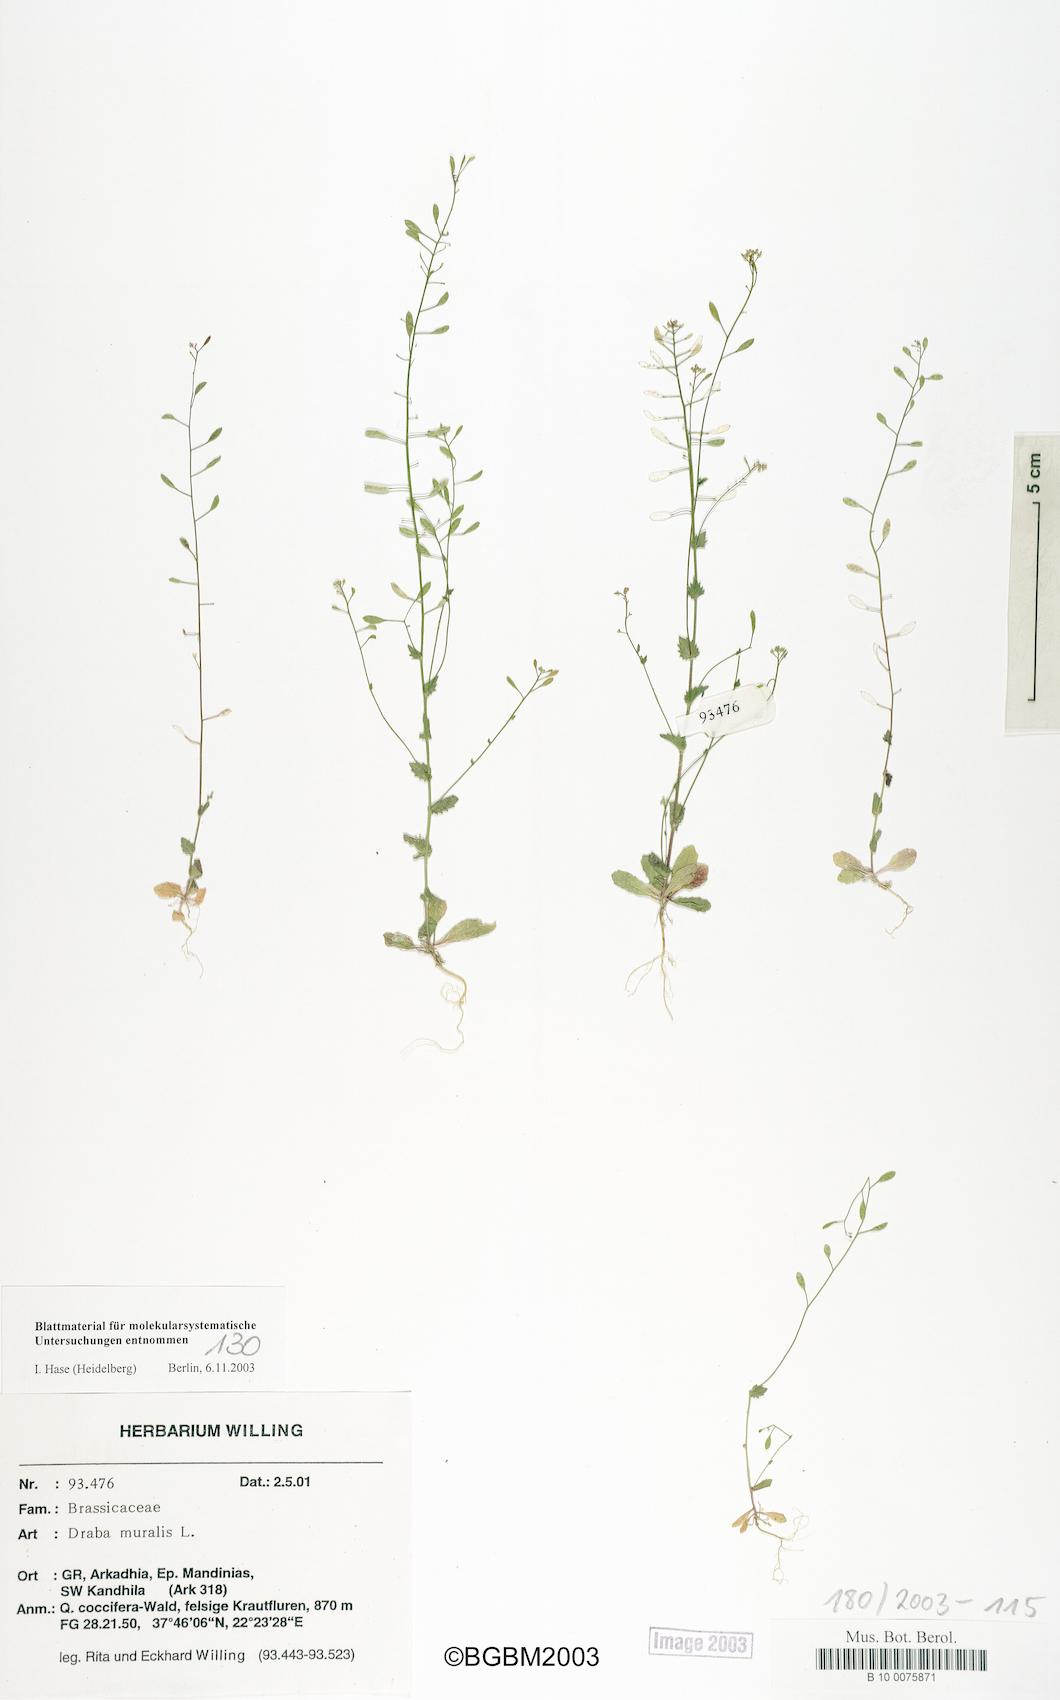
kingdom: Plantae
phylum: Tracheophyta
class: Magnoliopsida
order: Brassicales
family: Brassicaceae
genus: Drabella
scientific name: Drabella muralis
